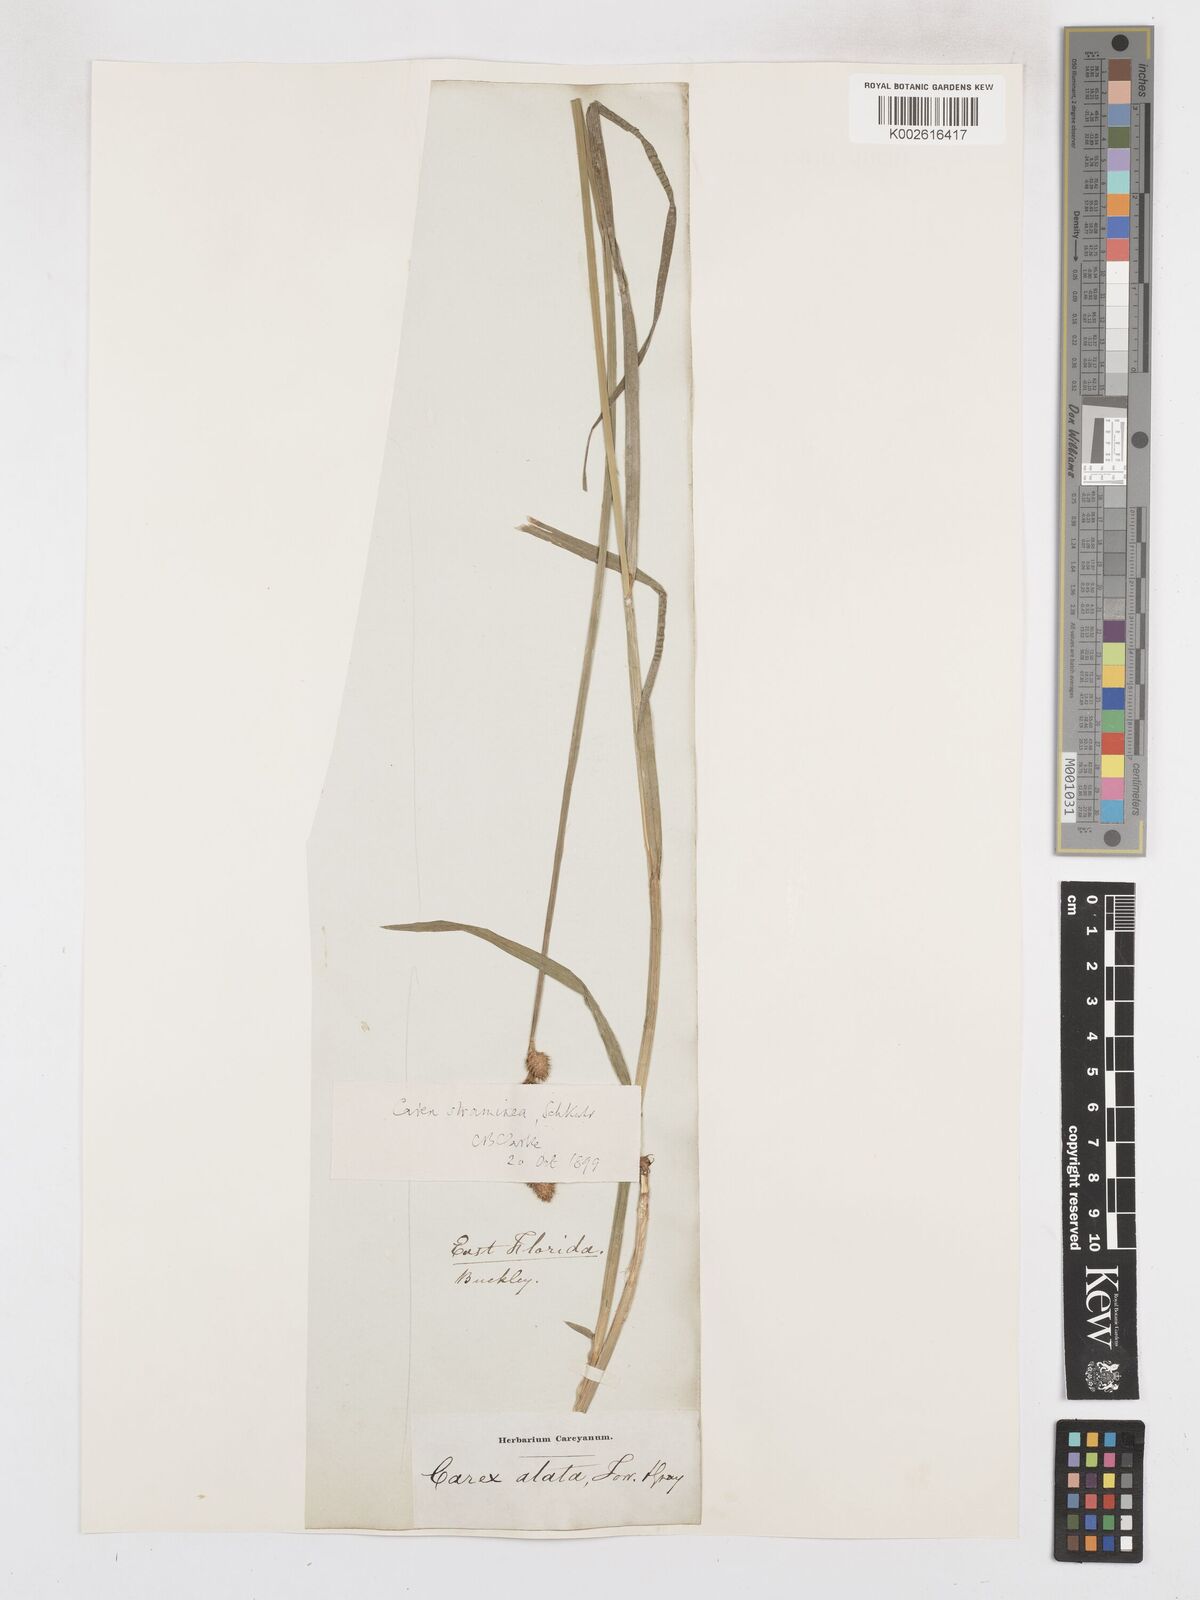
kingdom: Plantae
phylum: Tracheophyta
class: Liliopsida
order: Poales
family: Cyperaceae
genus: Carex
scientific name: Carex tribuloides
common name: Blunt broom sedge
